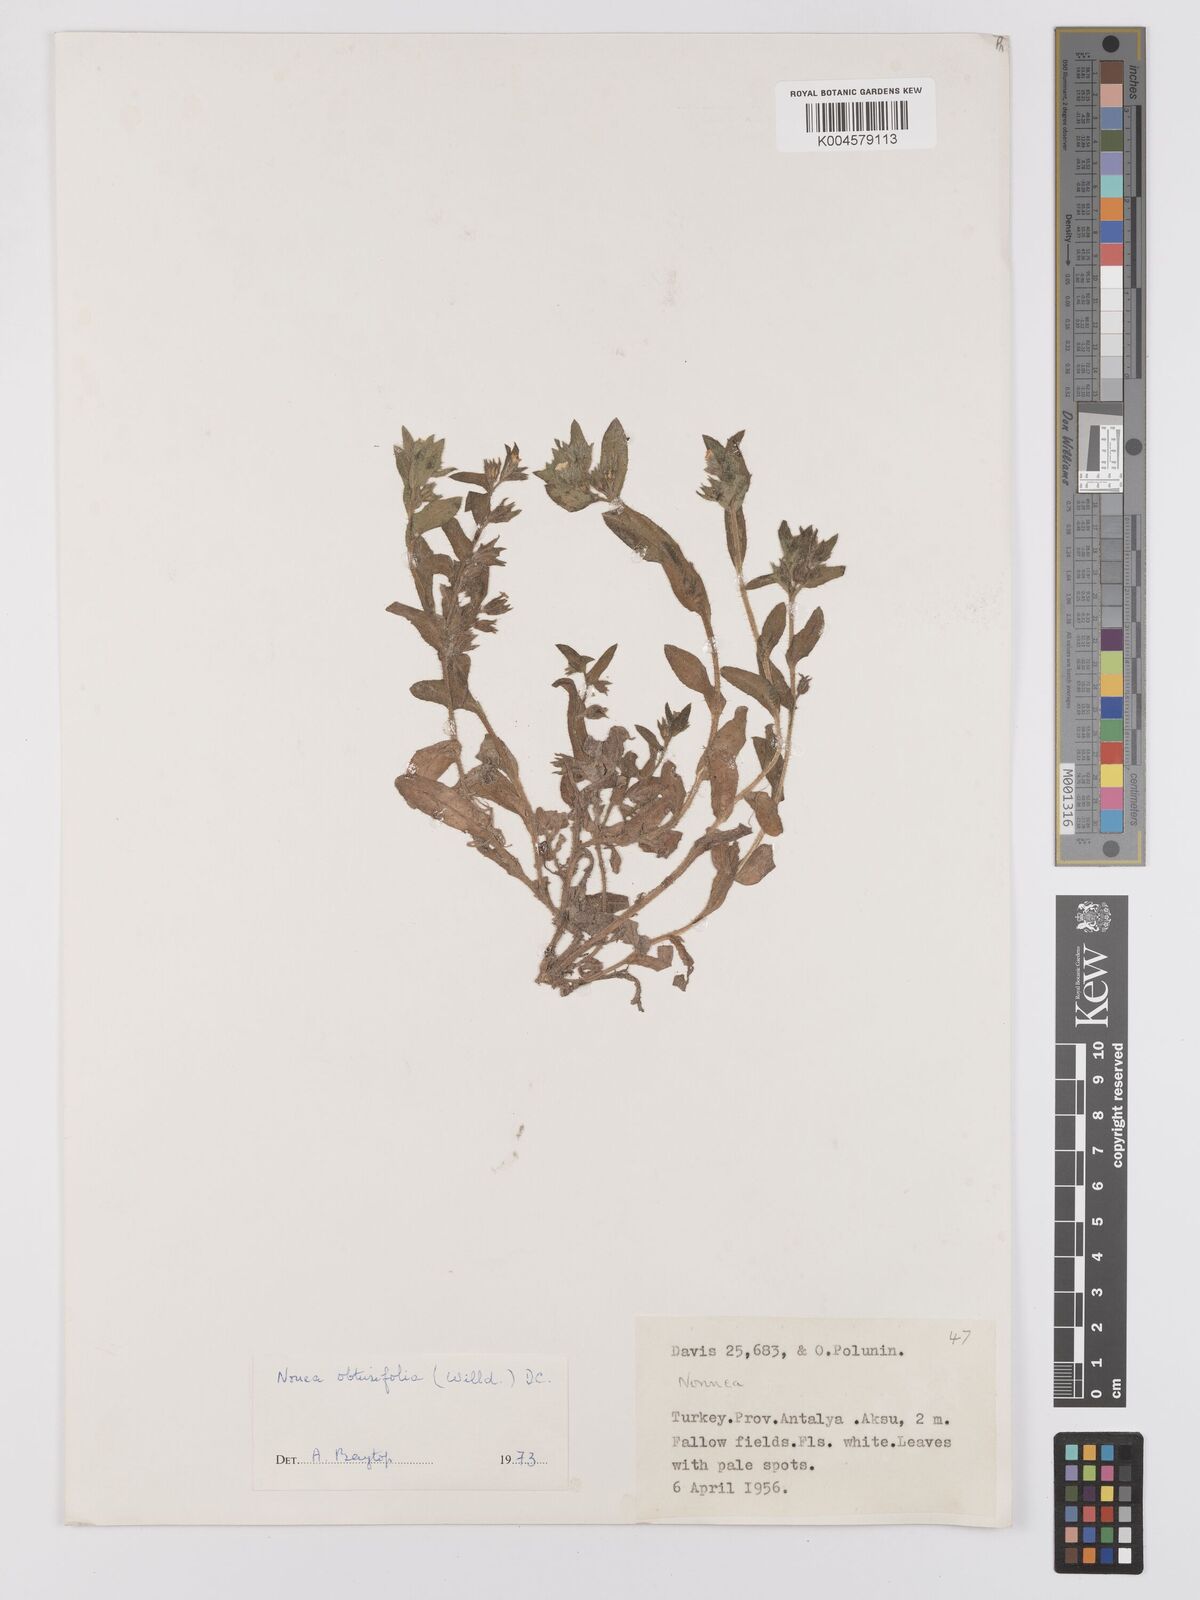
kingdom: Plantae
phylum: Tracheophyta
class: Magnoliopsida
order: Boraginales
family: Boraginaceae
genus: Nonea
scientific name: Nonea
